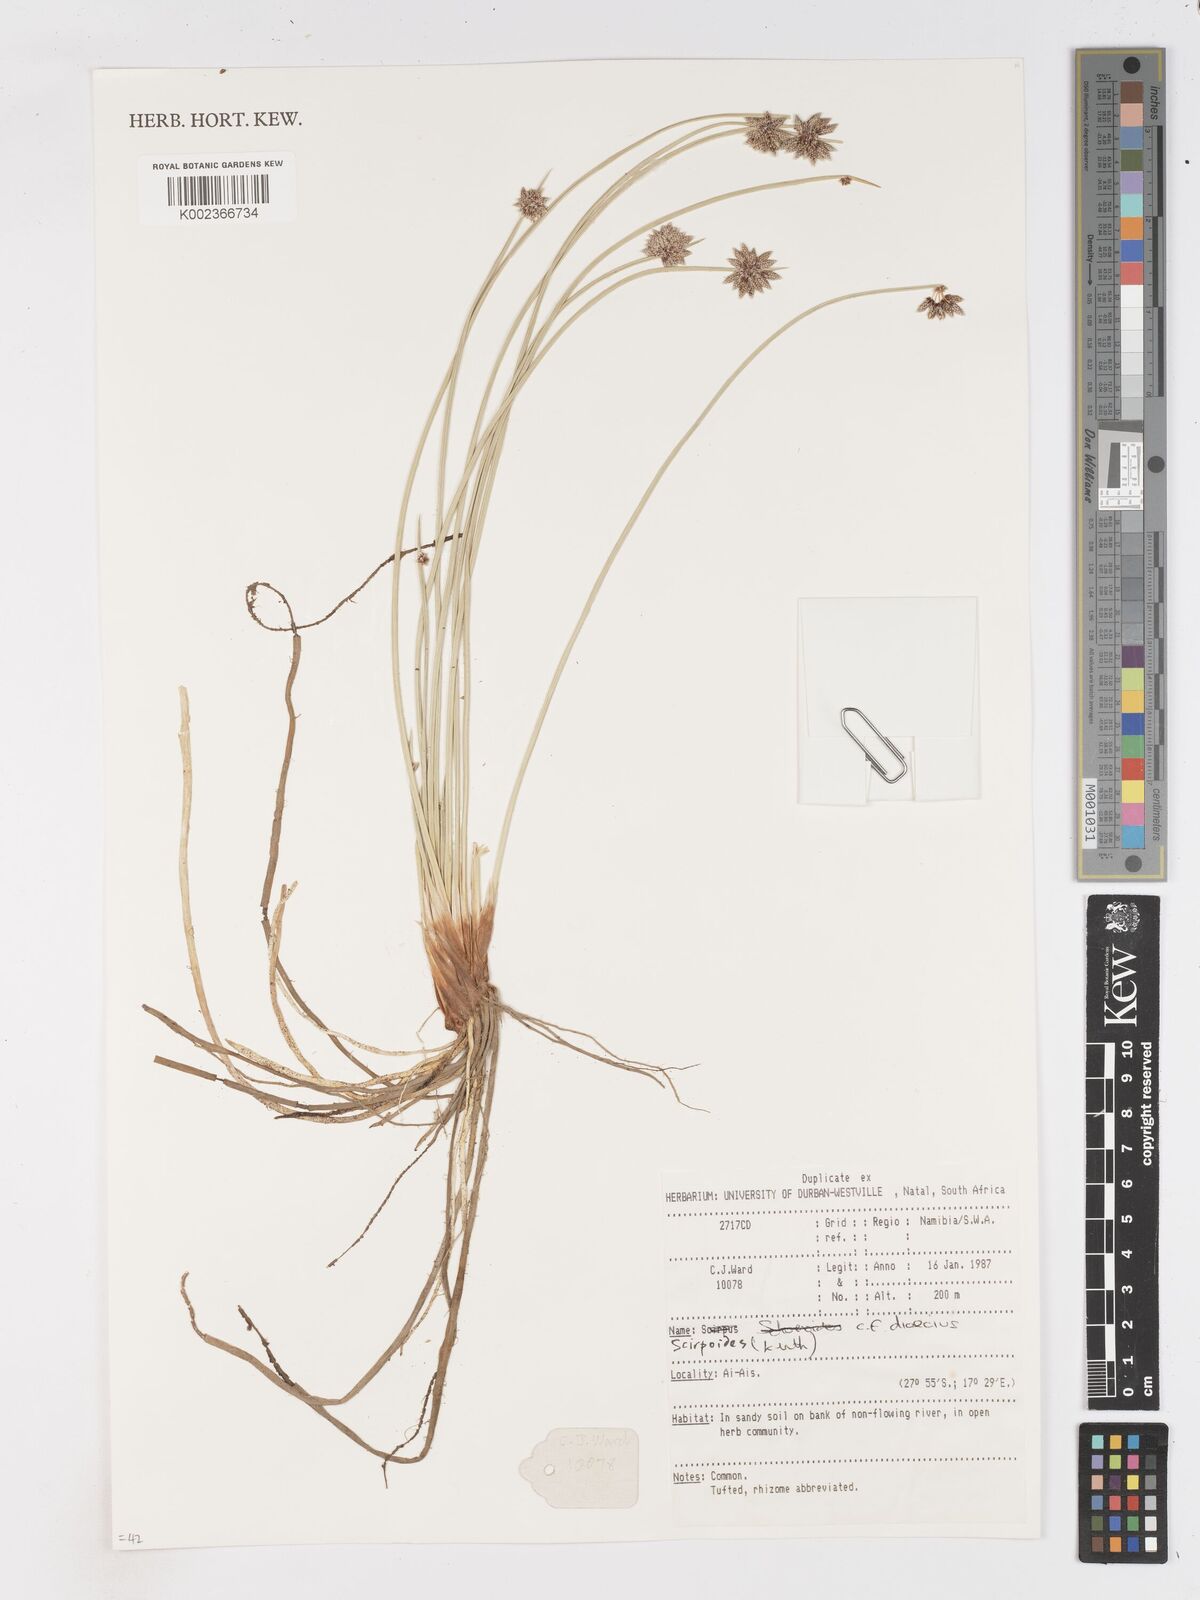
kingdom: Plantae
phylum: Tracheophyta
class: Liliopsida
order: Poales
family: Cyperaceae
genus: Scirpoides
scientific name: Scirpoides
